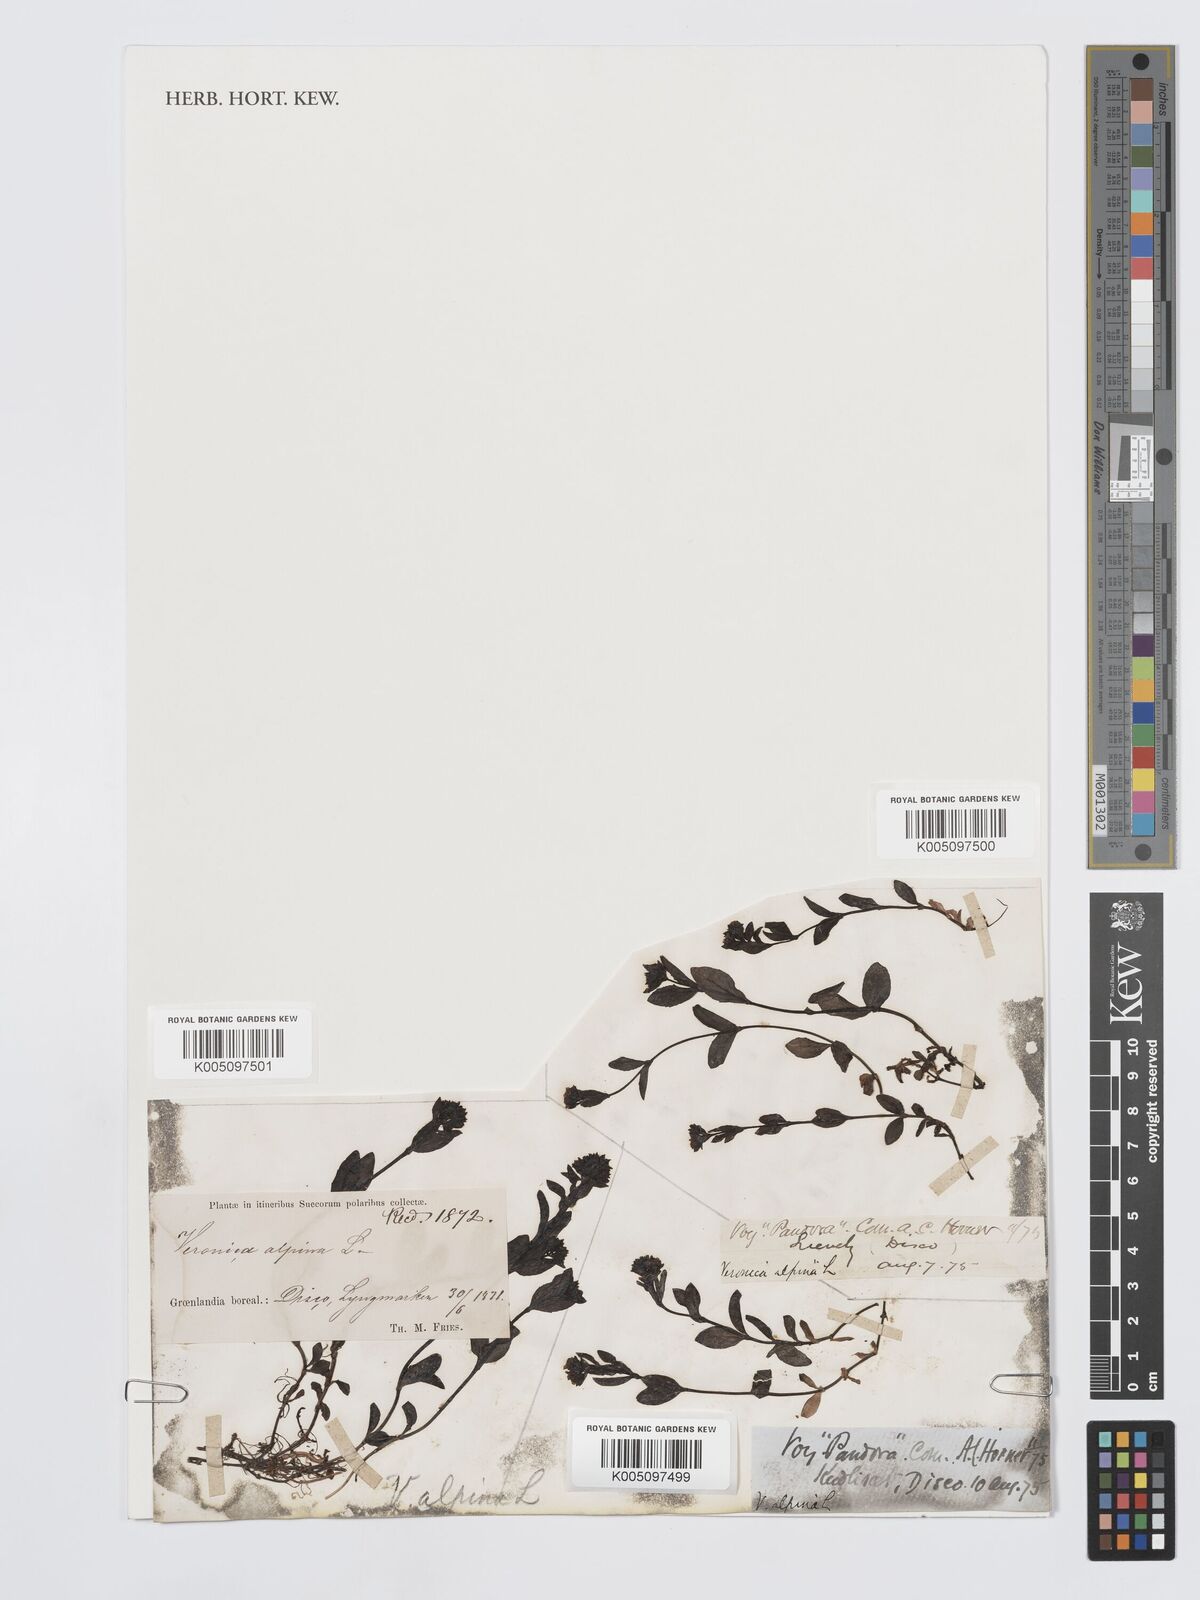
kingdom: Plantae
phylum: Tracheophyta
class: Magnoliopsida
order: Lamiales
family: Plantaginaceae
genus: Veronica
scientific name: Veronica alpina
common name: Alpine speedwell
